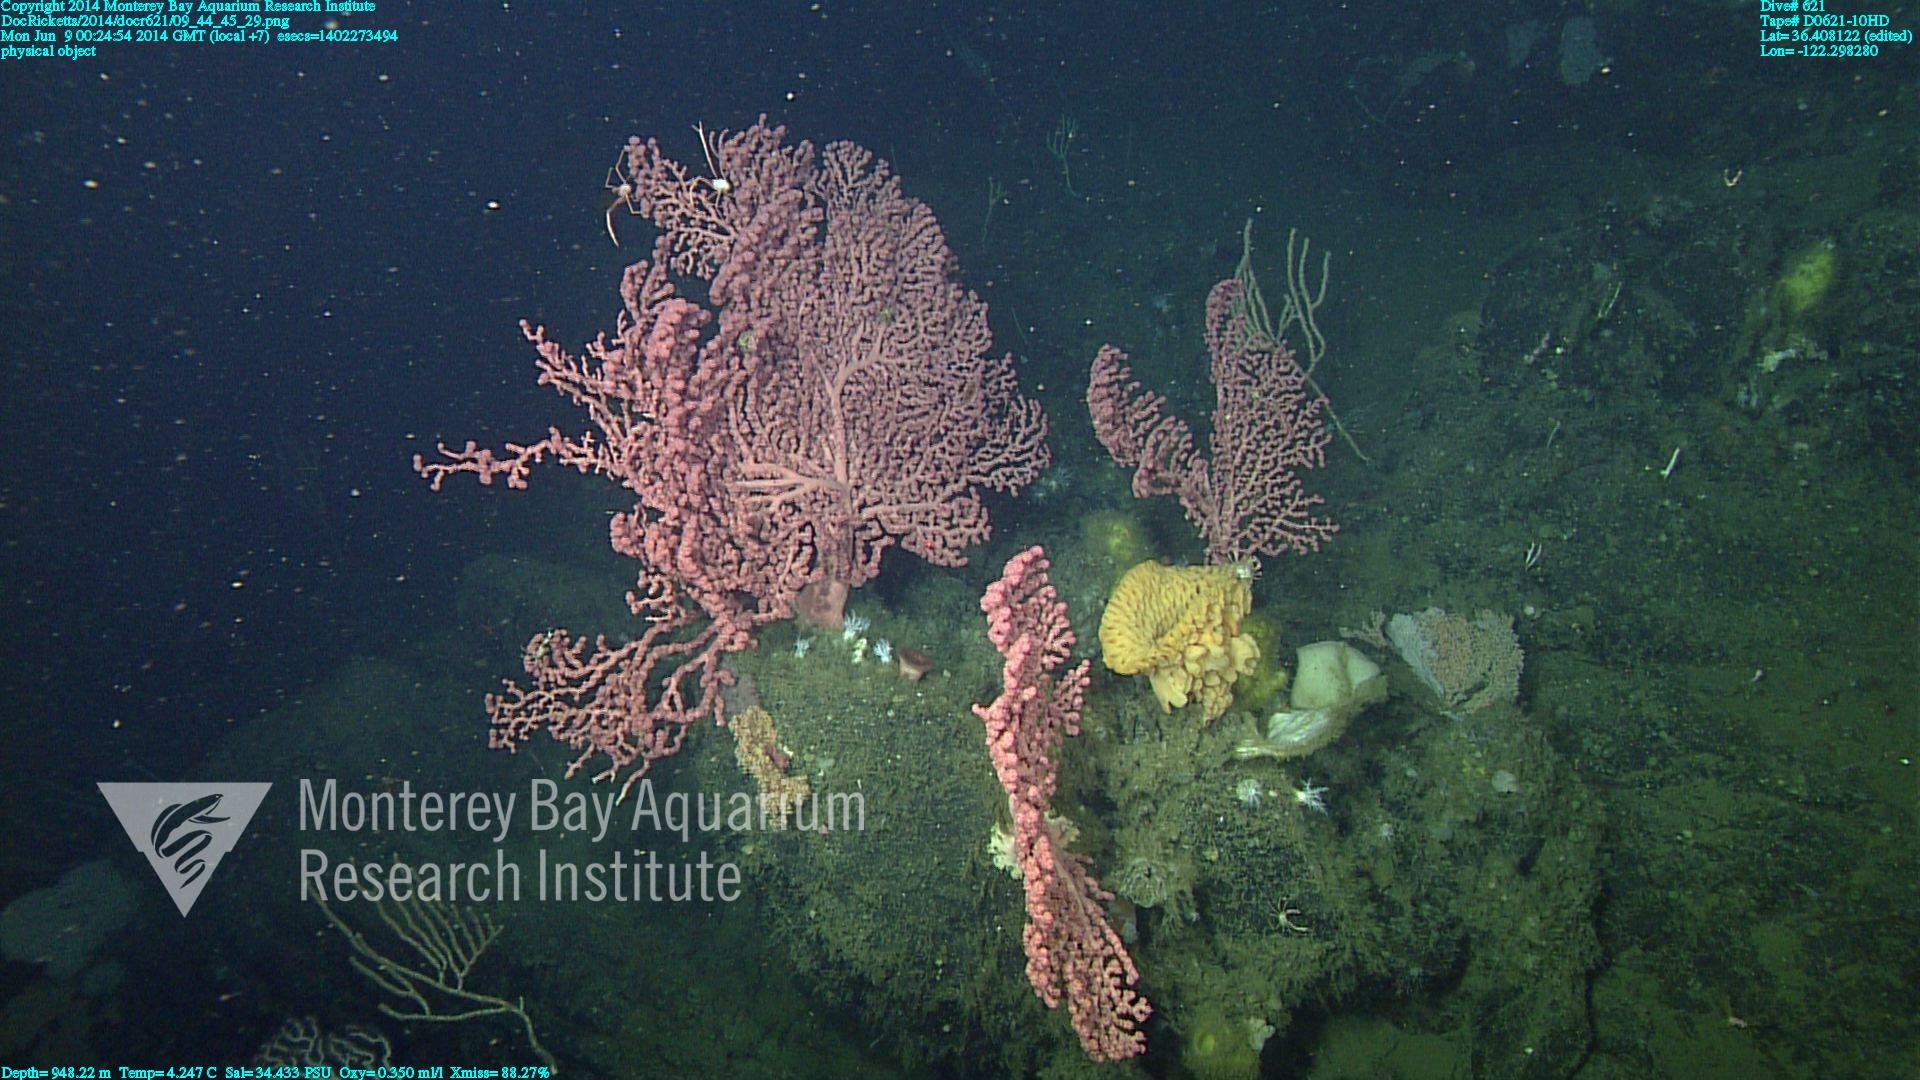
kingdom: Animalia
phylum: Cnidaria
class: Anthozoa
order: Scleralcyonacea
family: Coralliidae
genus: Paragorgia
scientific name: Paragorgia arborea
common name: Bubble gum coral
